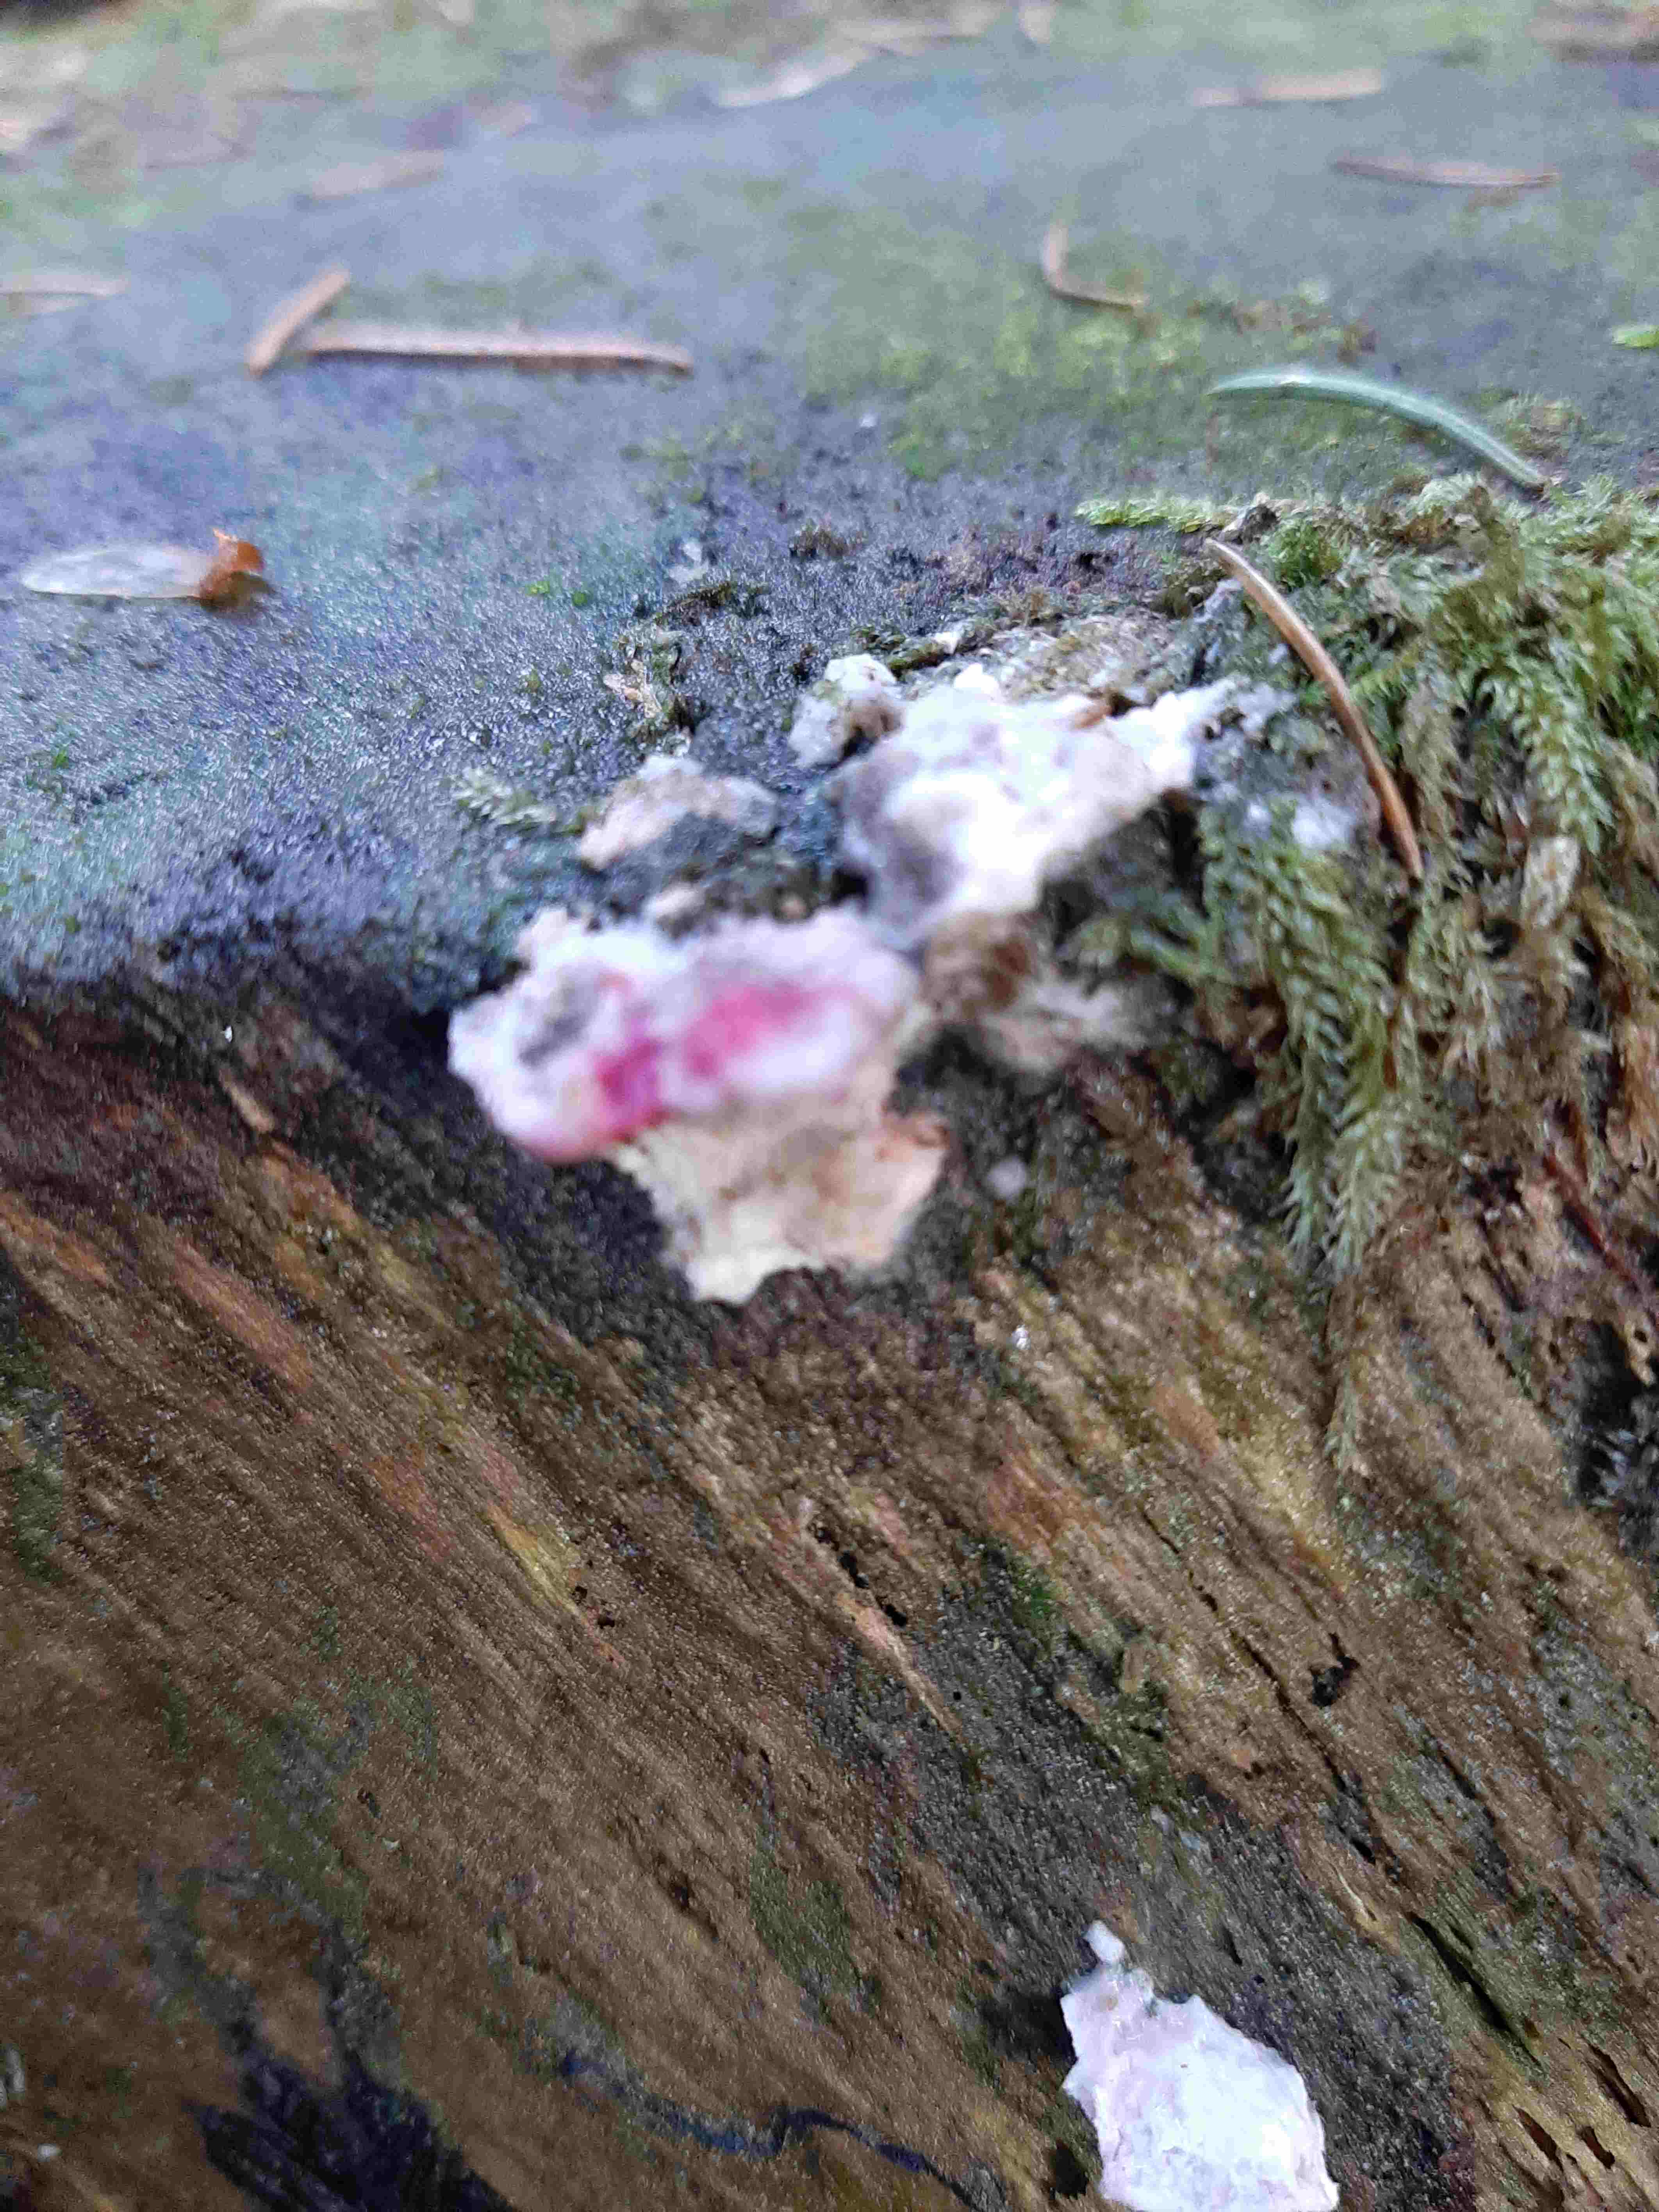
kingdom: Fungi
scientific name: Fungi
